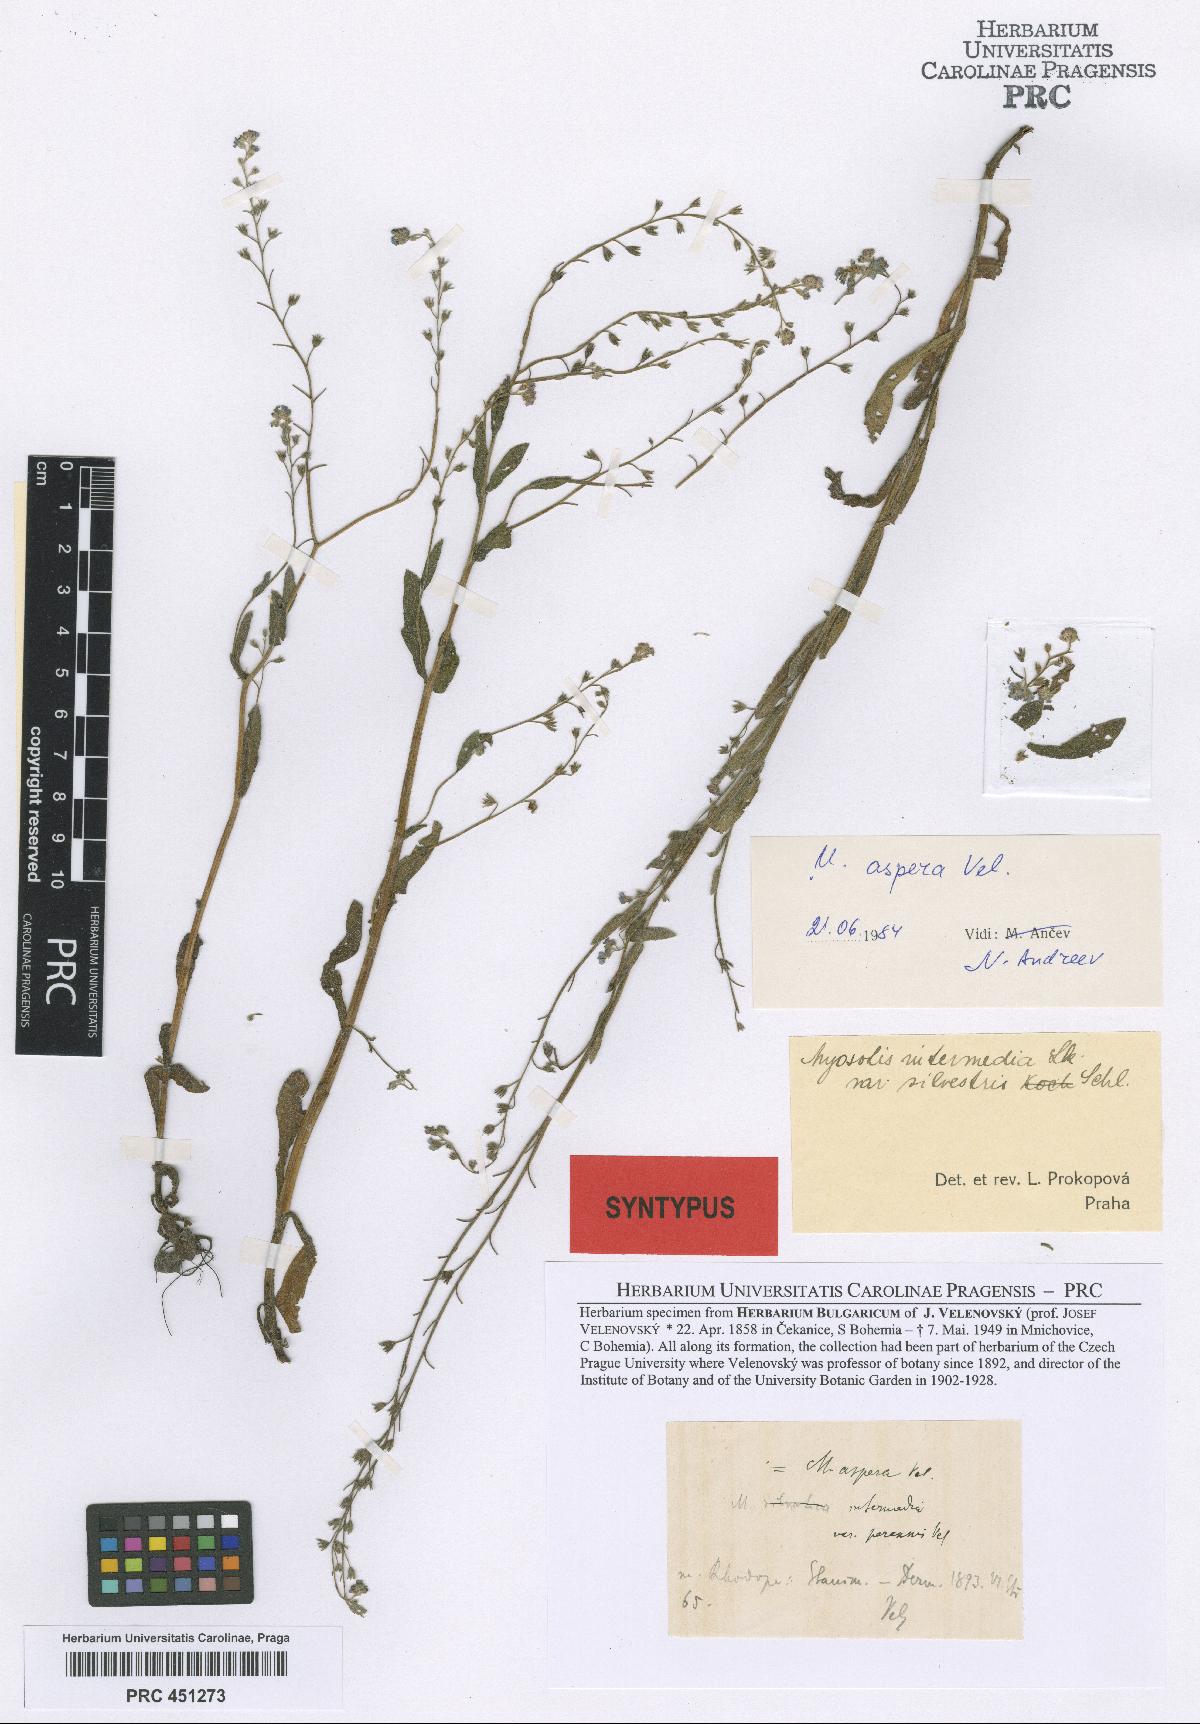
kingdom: Plantae
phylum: Tracheophyta
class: Magnoliopsida
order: Boraginales
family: Boraginaceae
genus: Myosotis
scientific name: Myosotis sylvatica
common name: Wood forget-me-not
